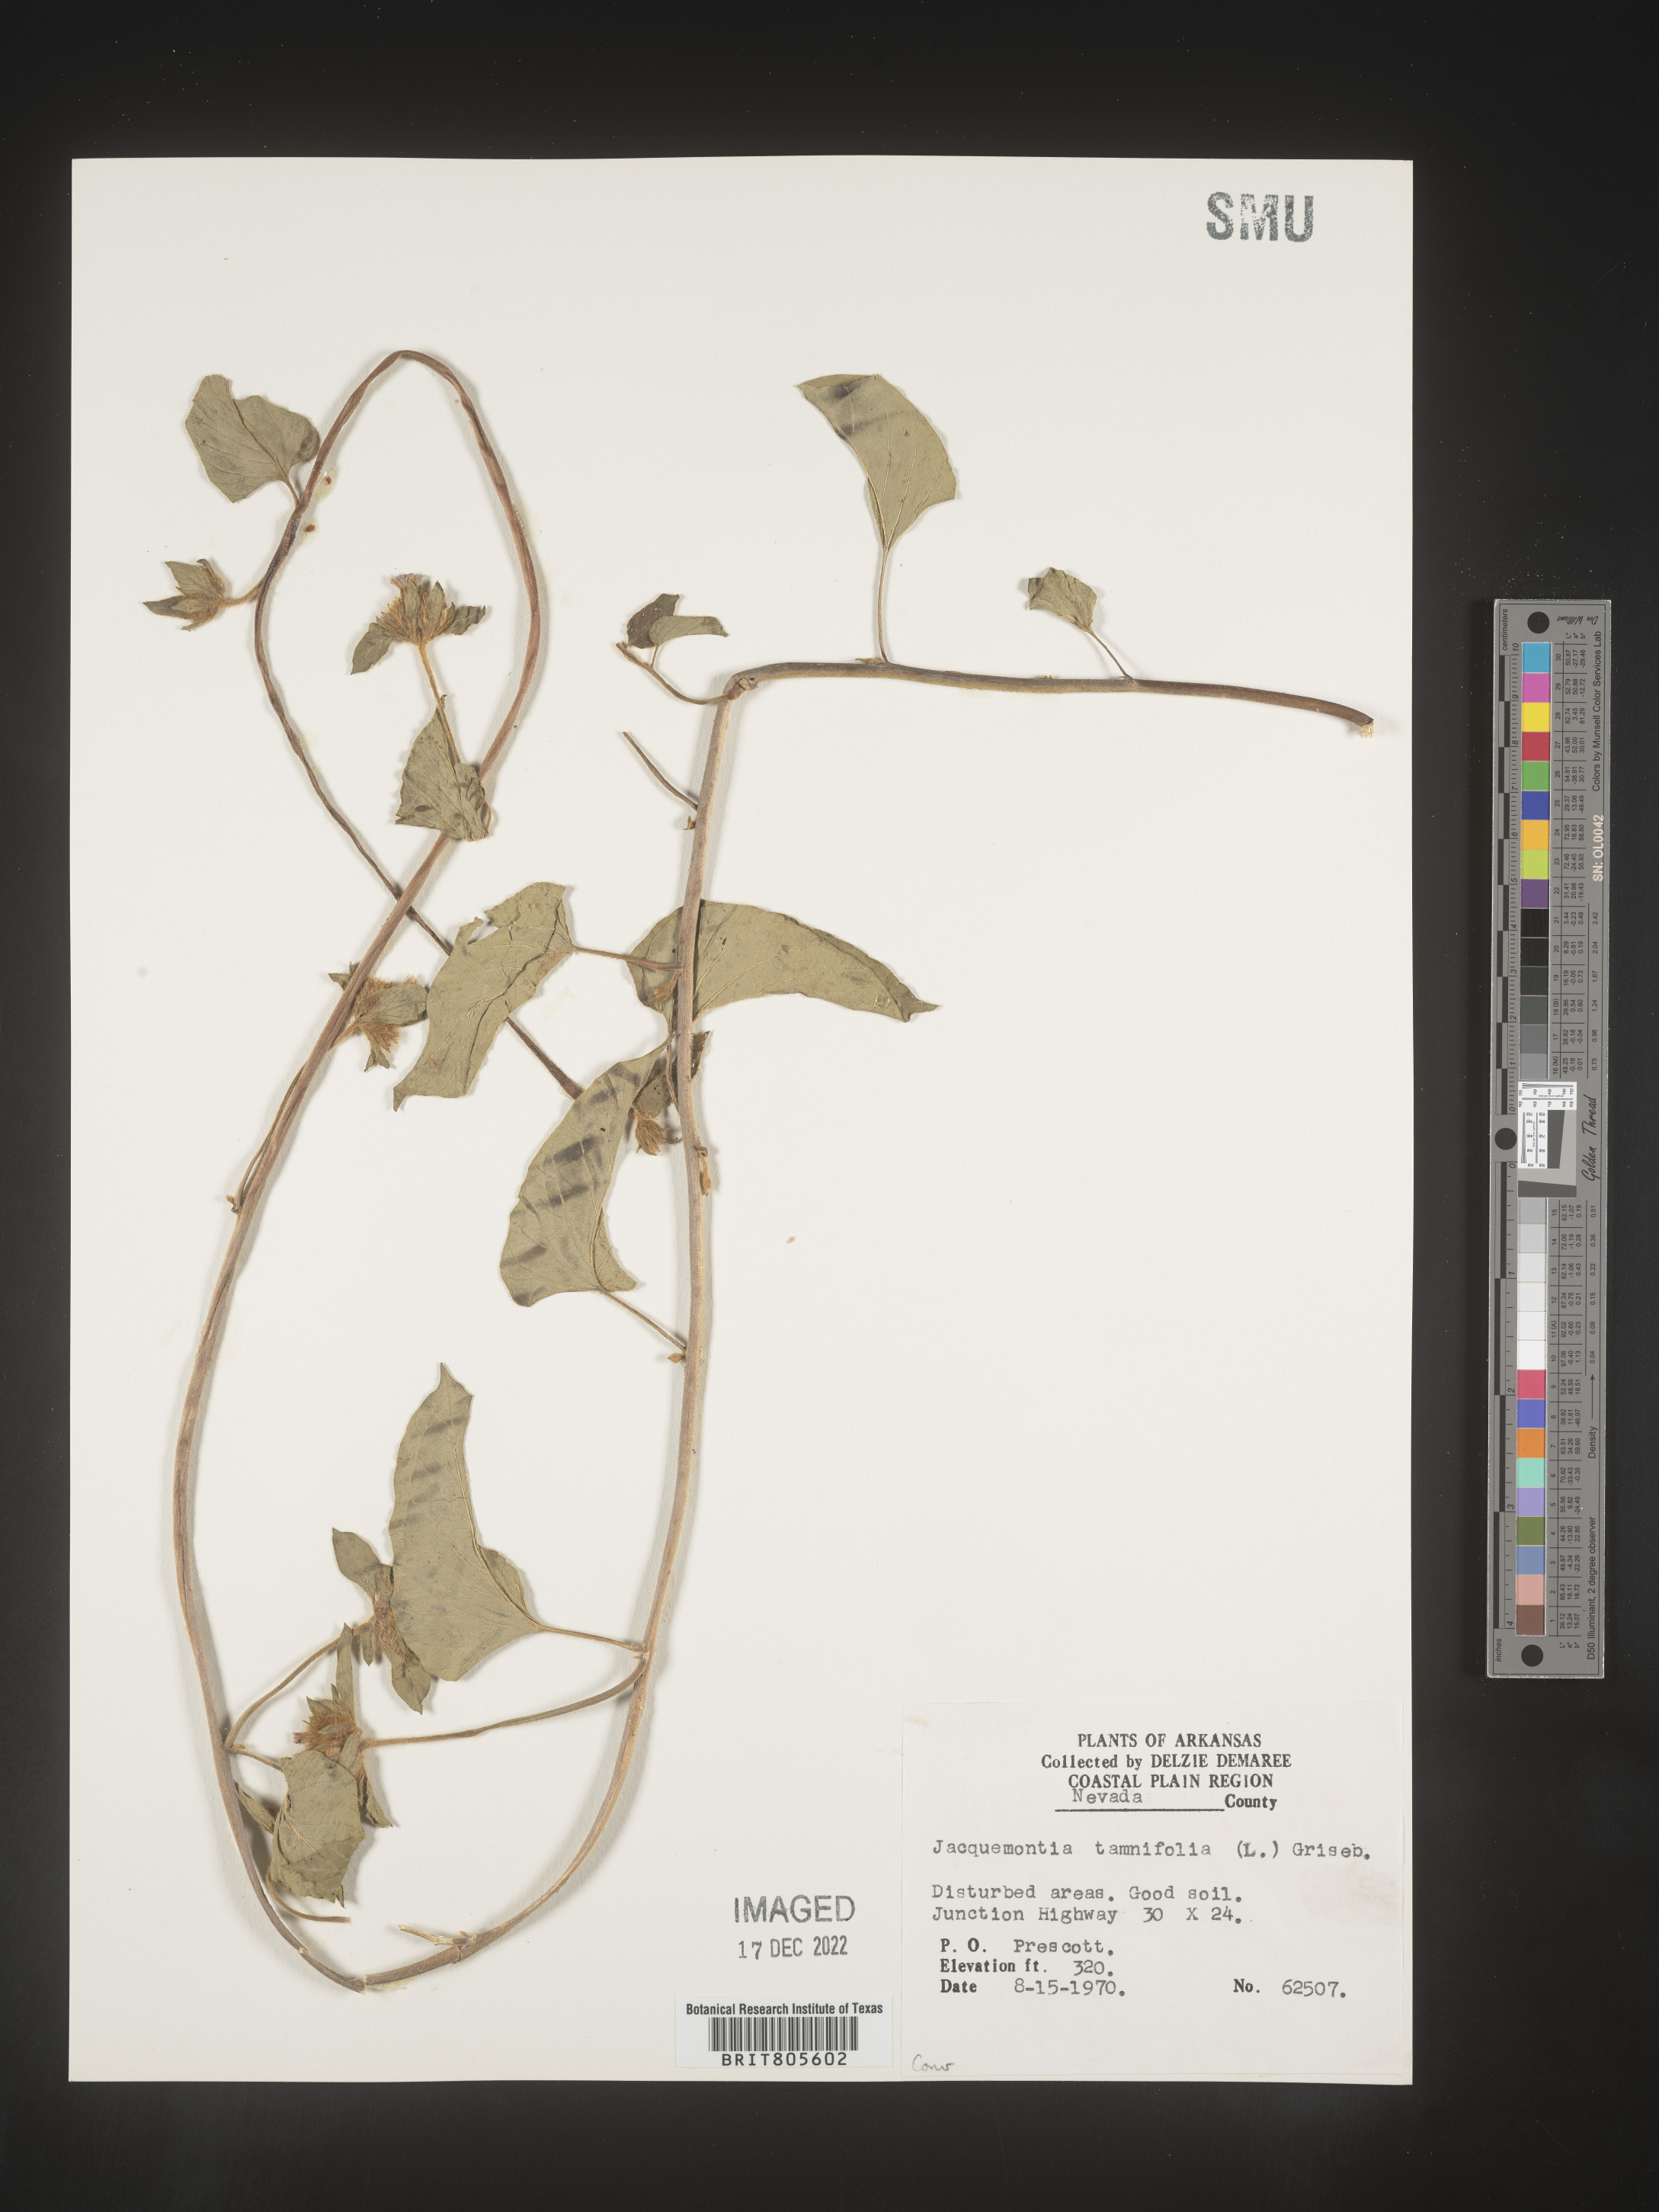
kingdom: Plantae
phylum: Tracheophyta
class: Magnoliopsida
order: Solanales
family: Convolvulaceae
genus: Jacquemontia
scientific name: Jacquemontia tamnifolia
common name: Hairy clustervine
